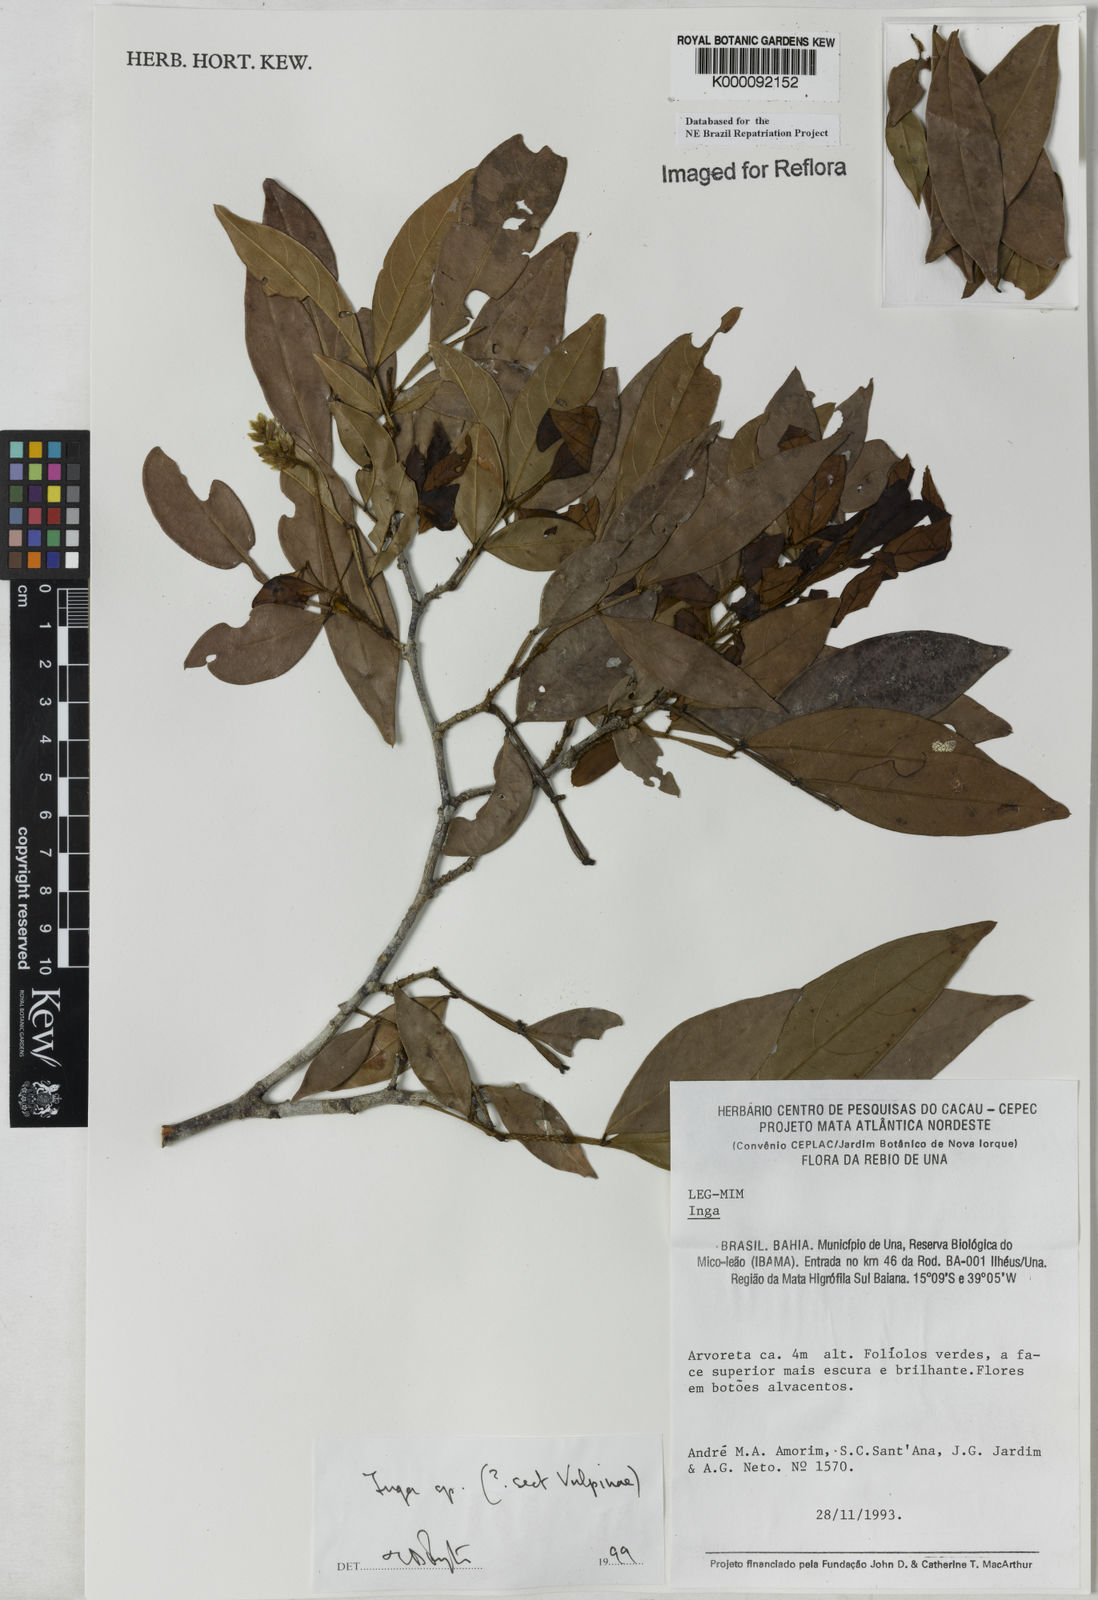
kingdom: Plantae
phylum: Tracheophyta
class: Magnoliopsida
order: Fabales
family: Fabaceae
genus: Inga
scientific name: Inga
